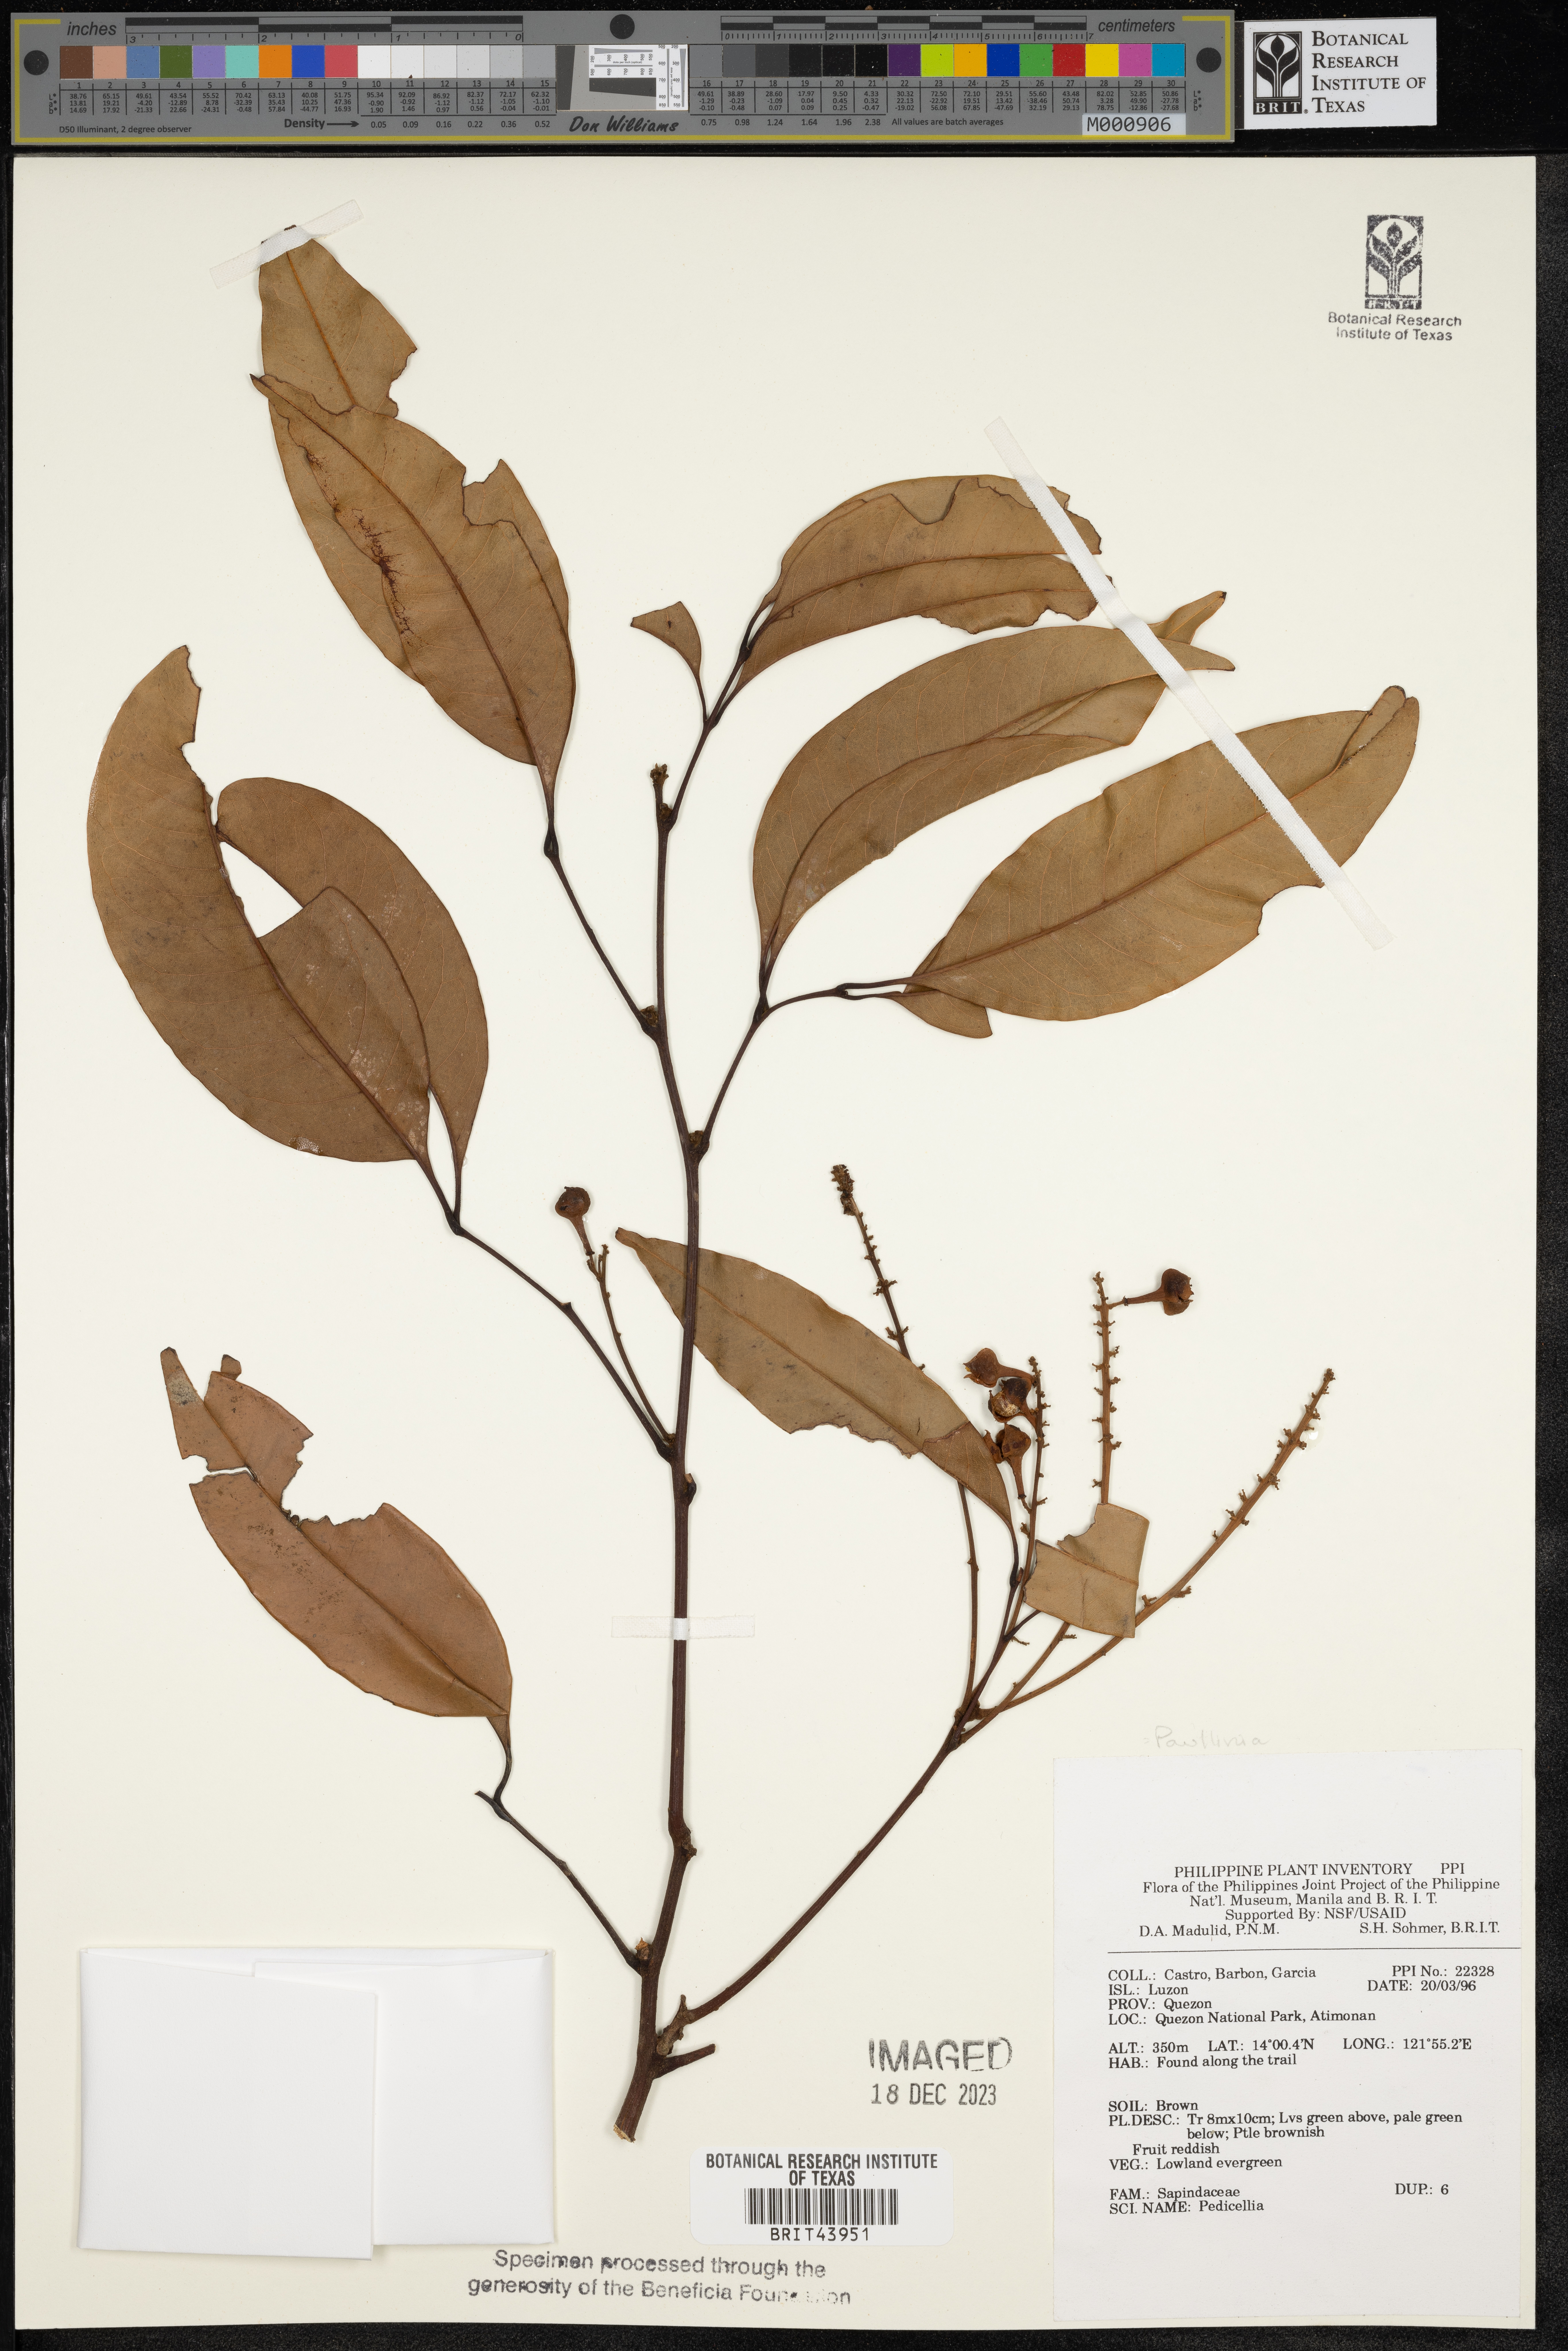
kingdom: Plantae
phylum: Tracheophyta
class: Magnoliopsida
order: Sapindales
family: Sapindaceae
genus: Paullinia
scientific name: Paullinia
